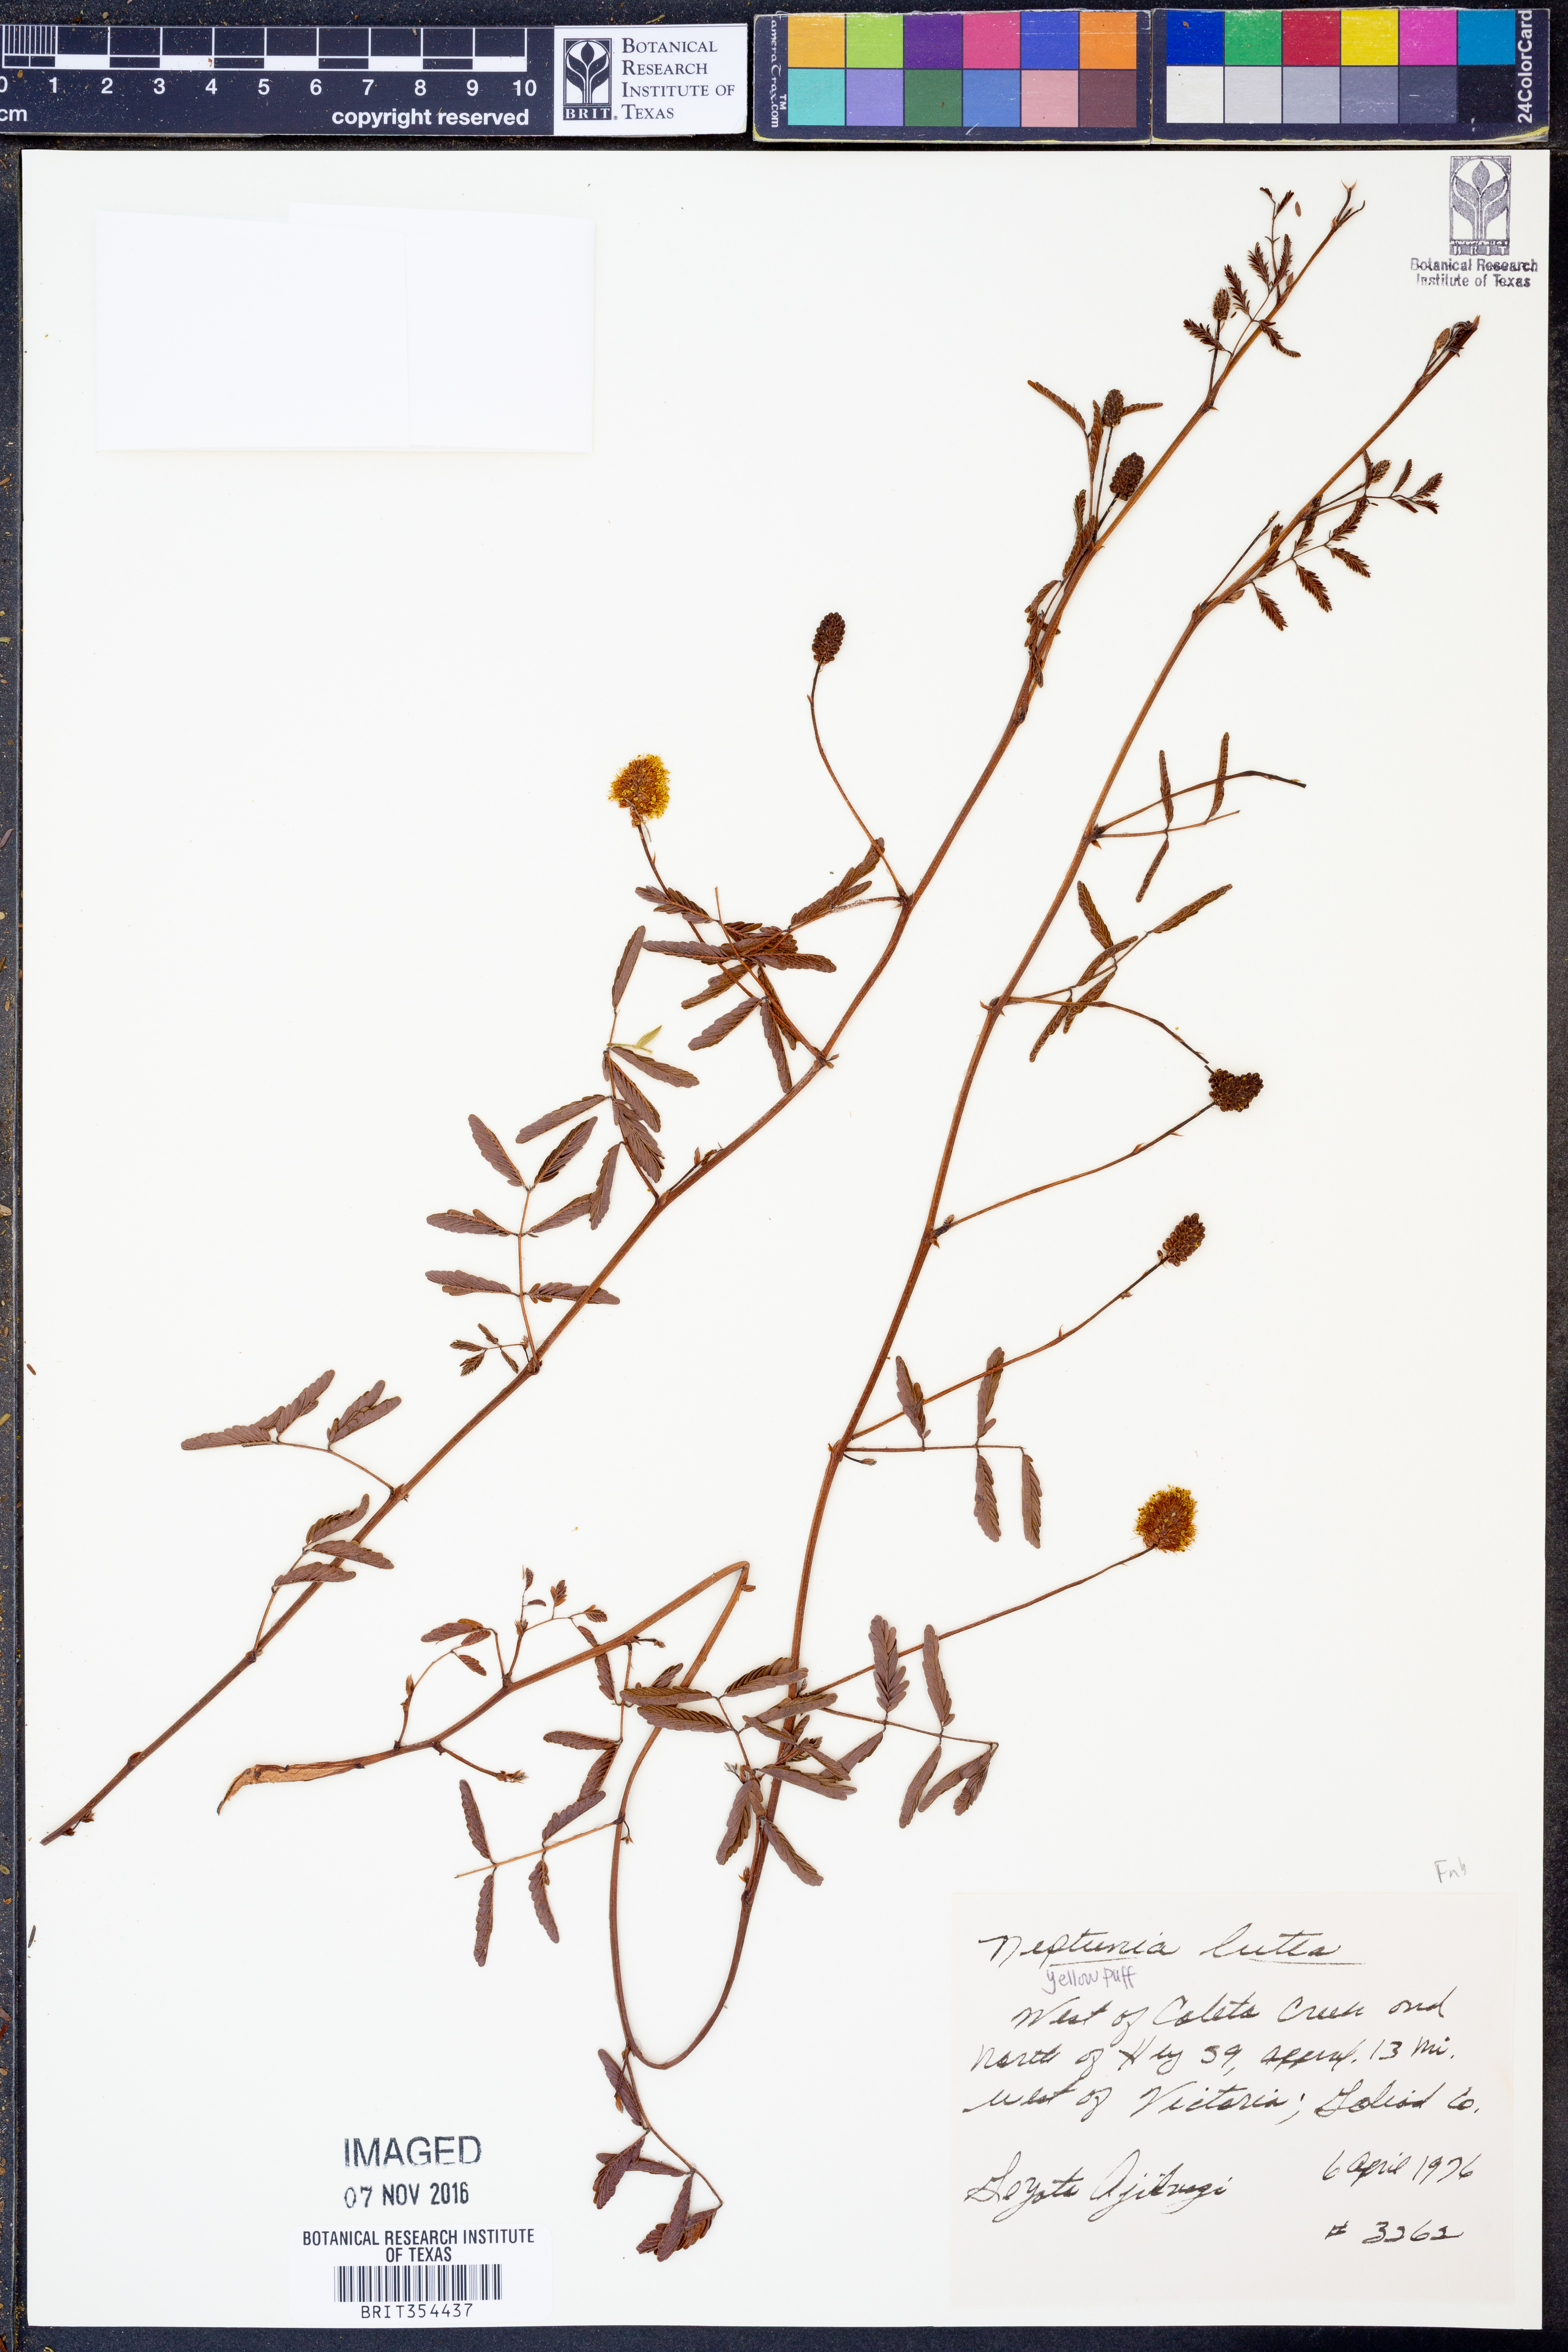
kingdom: Plantae
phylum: Tracheophyta
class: Magnoliopsida
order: Fabales
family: Fabaceae
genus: Neptunia
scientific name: Neptunia lutea
